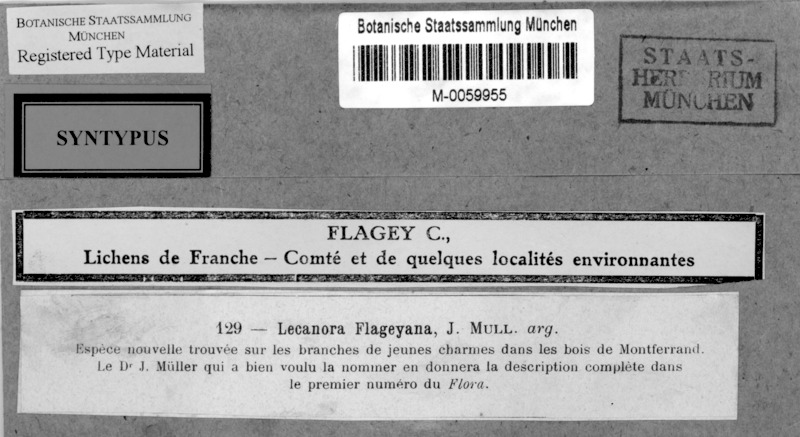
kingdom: Fungi
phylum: Ascomycota
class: Lecanoromycetes
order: Lecanorales
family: Lecanoraceae
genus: Lecanora
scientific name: Lecanora flageyana
